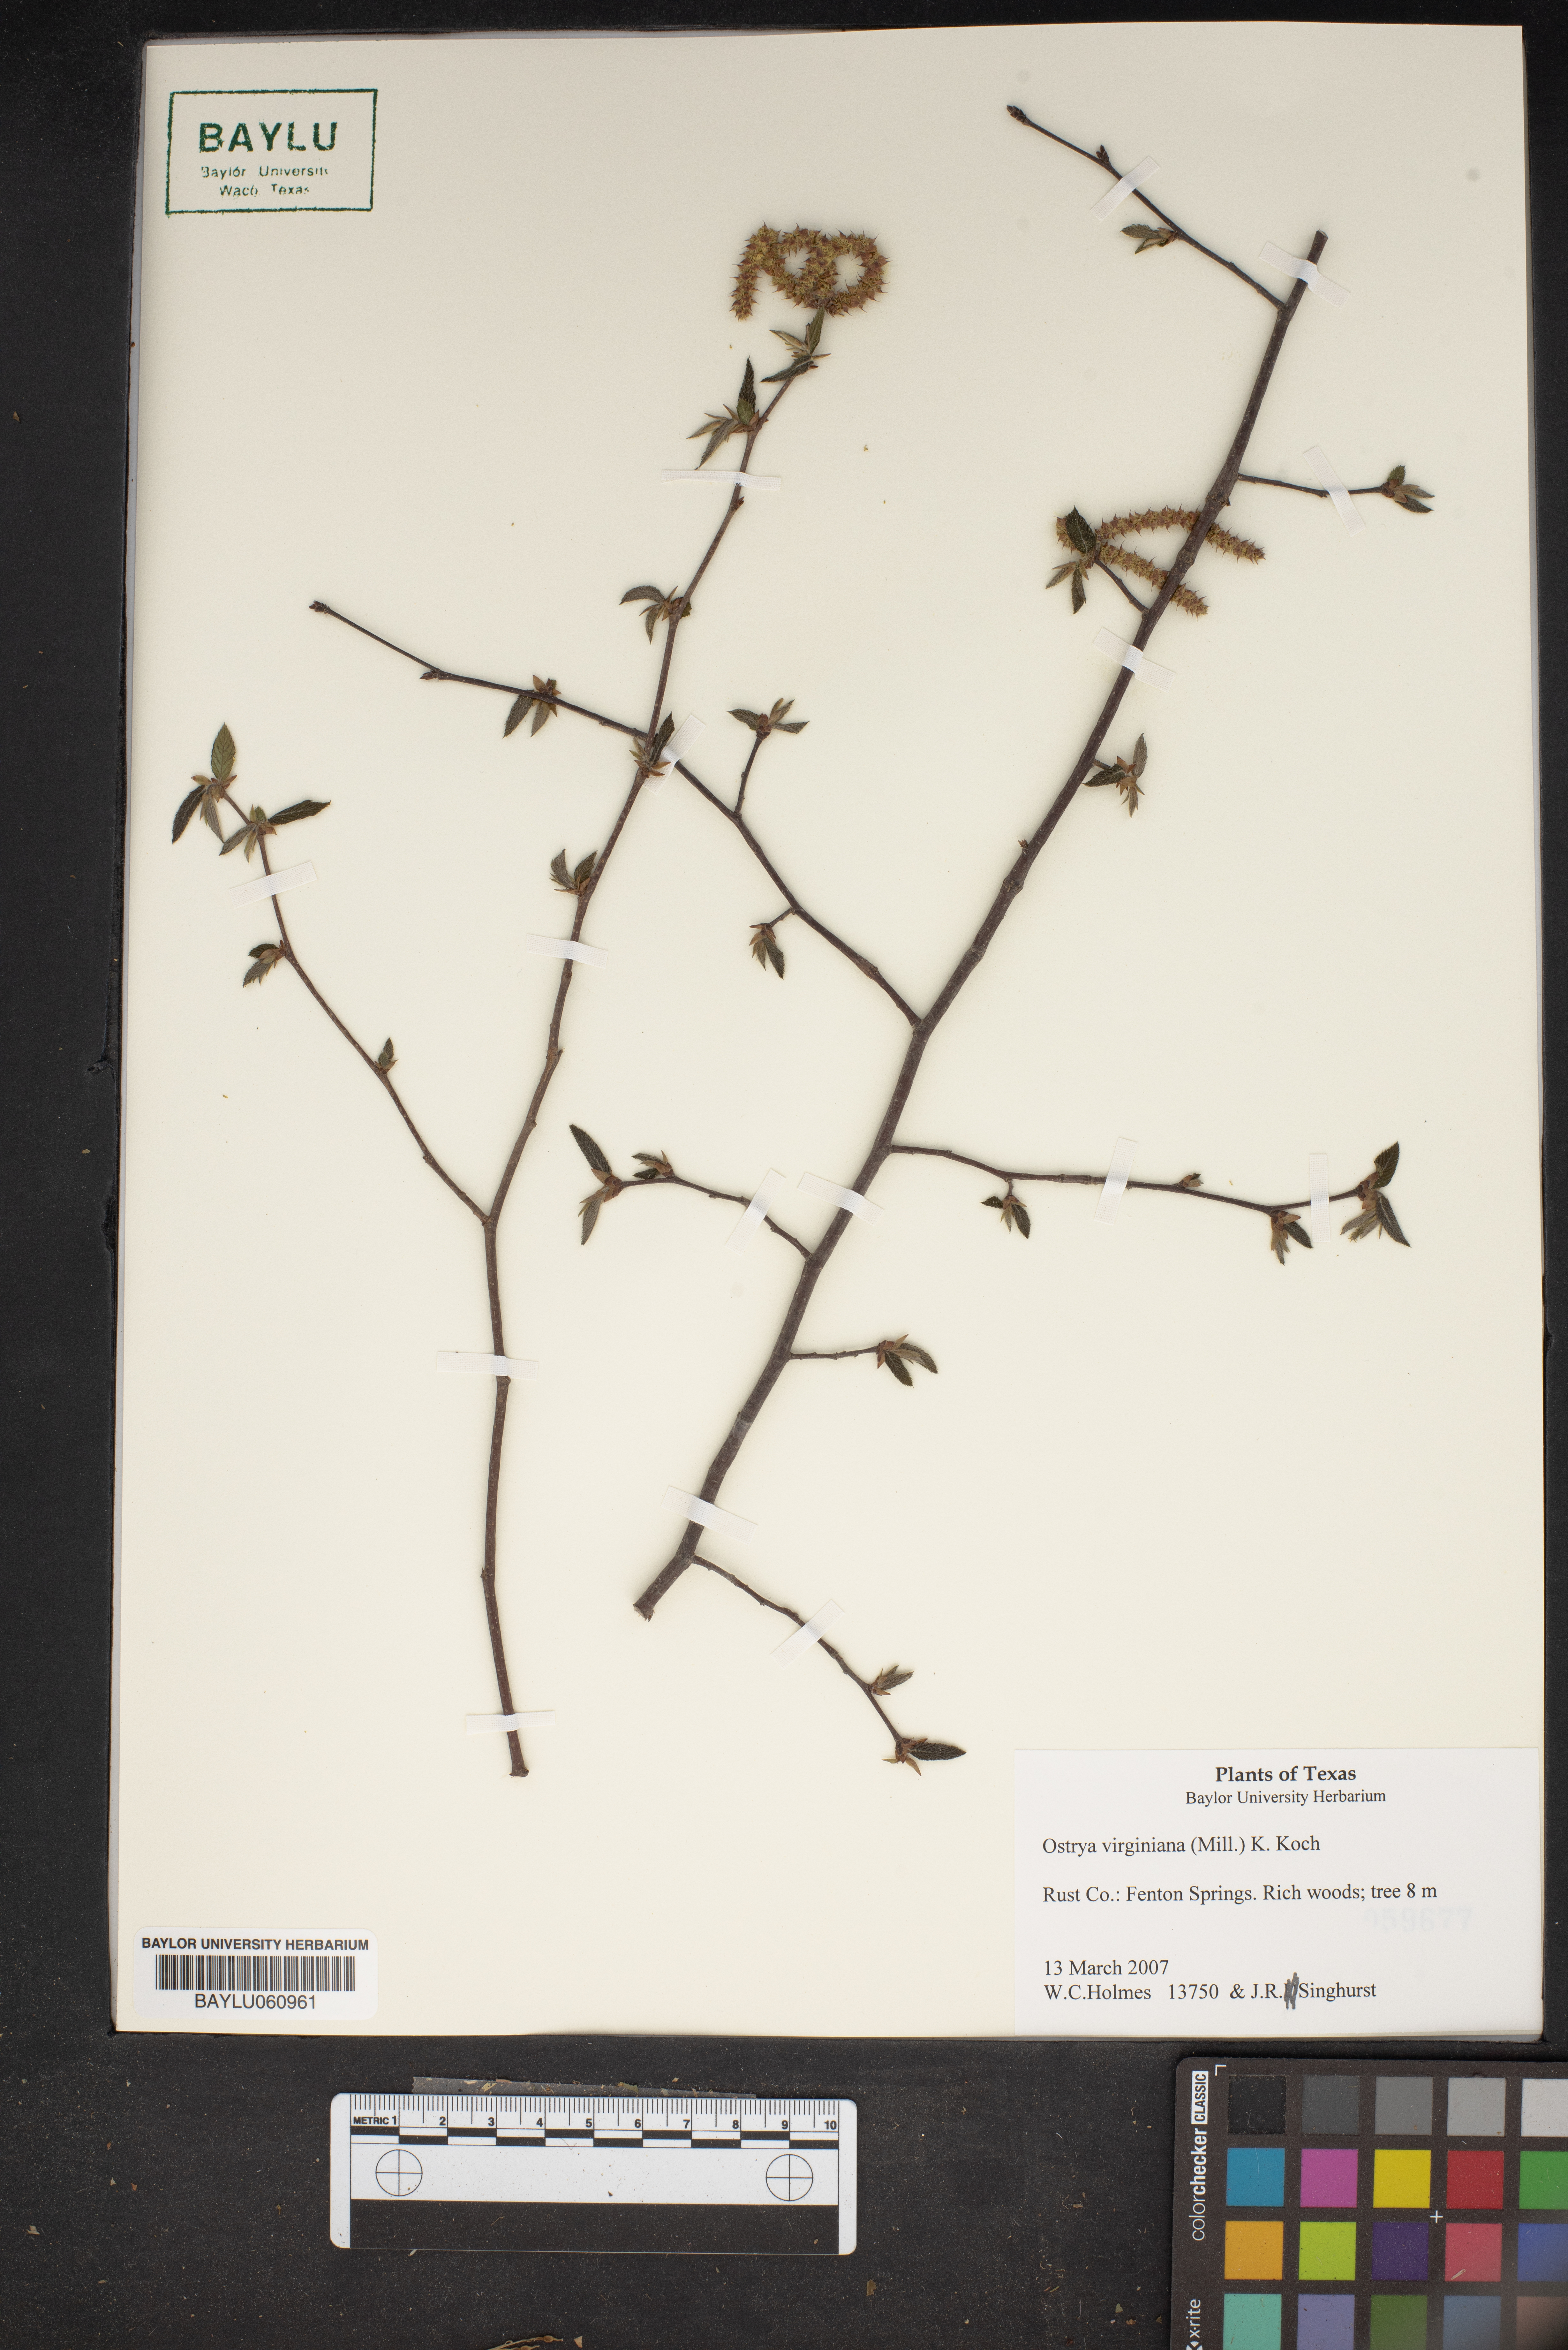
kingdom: Plantae
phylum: Tracheophyta
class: Magnoliopsida
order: Fagales
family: Betulaceae
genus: Ostrya
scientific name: Ostrya virginiana
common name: Ironwood
